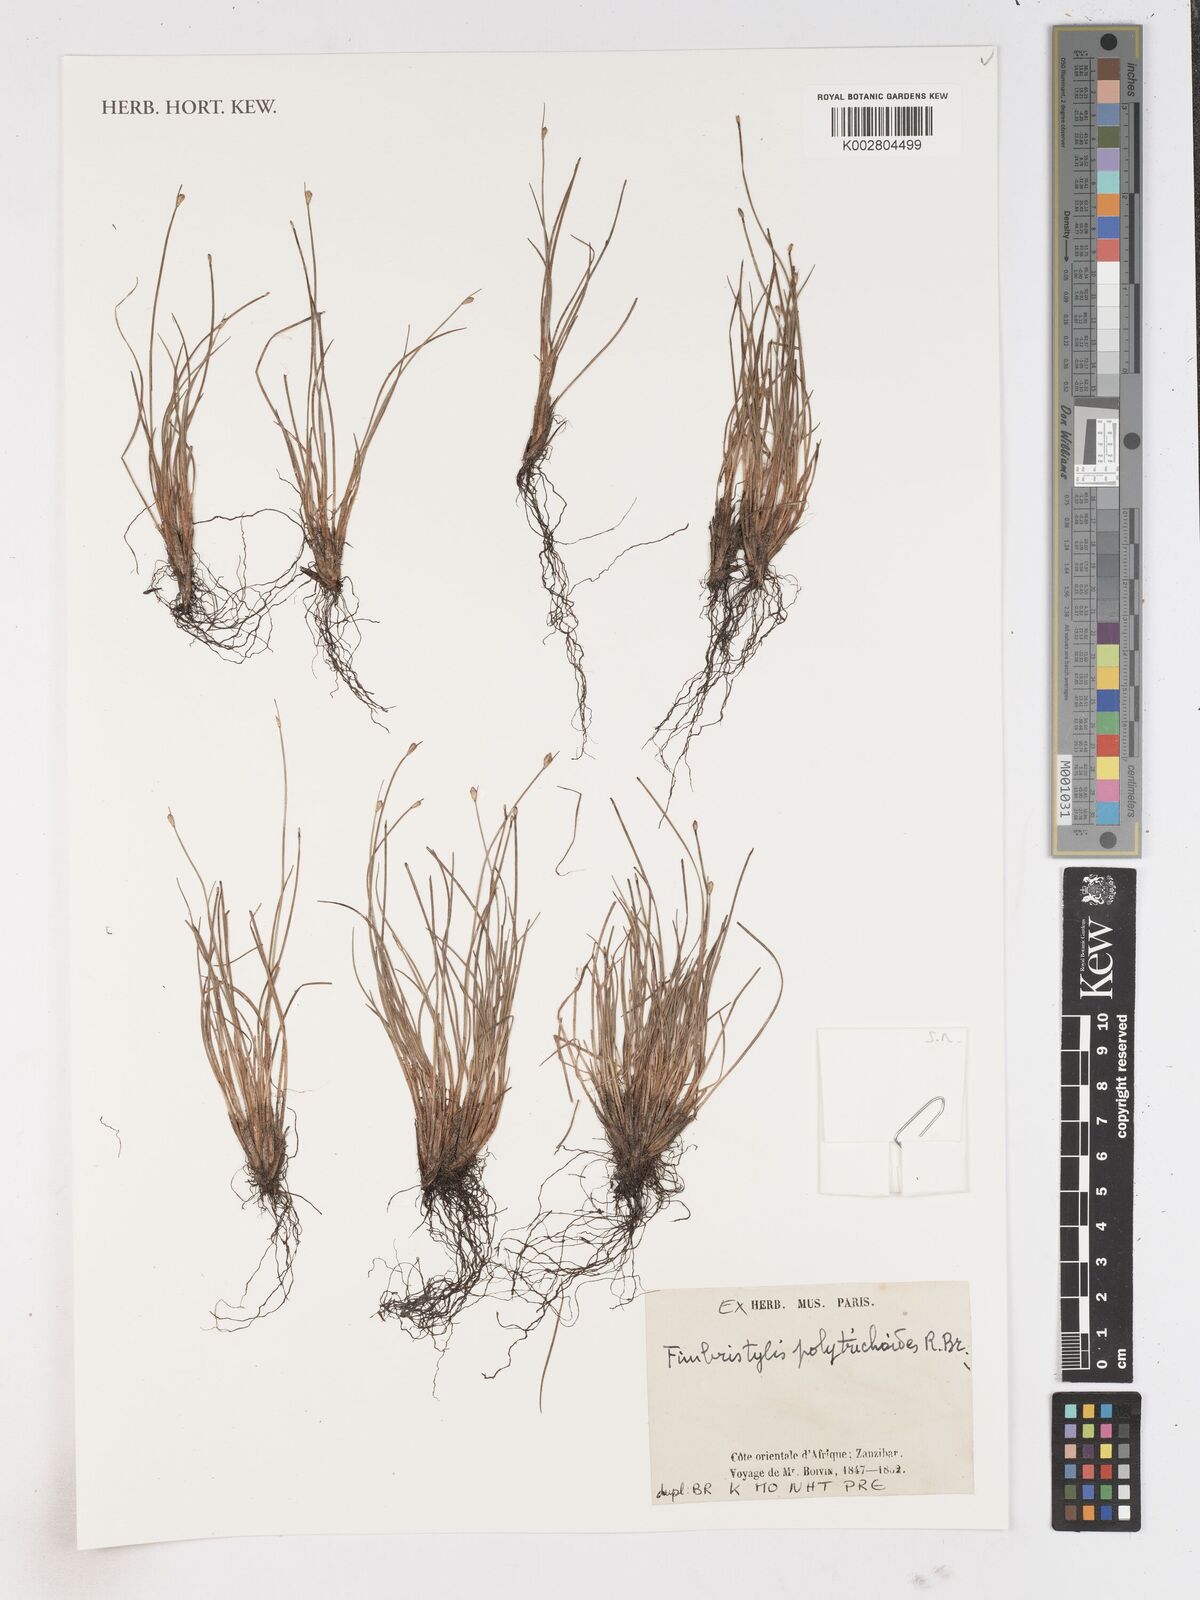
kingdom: Plantae
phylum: Tracheophyta
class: Liliopsida
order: Poales
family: Cyperaceae
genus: Fimbristylis
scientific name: Fimbristylis polytrichoides
